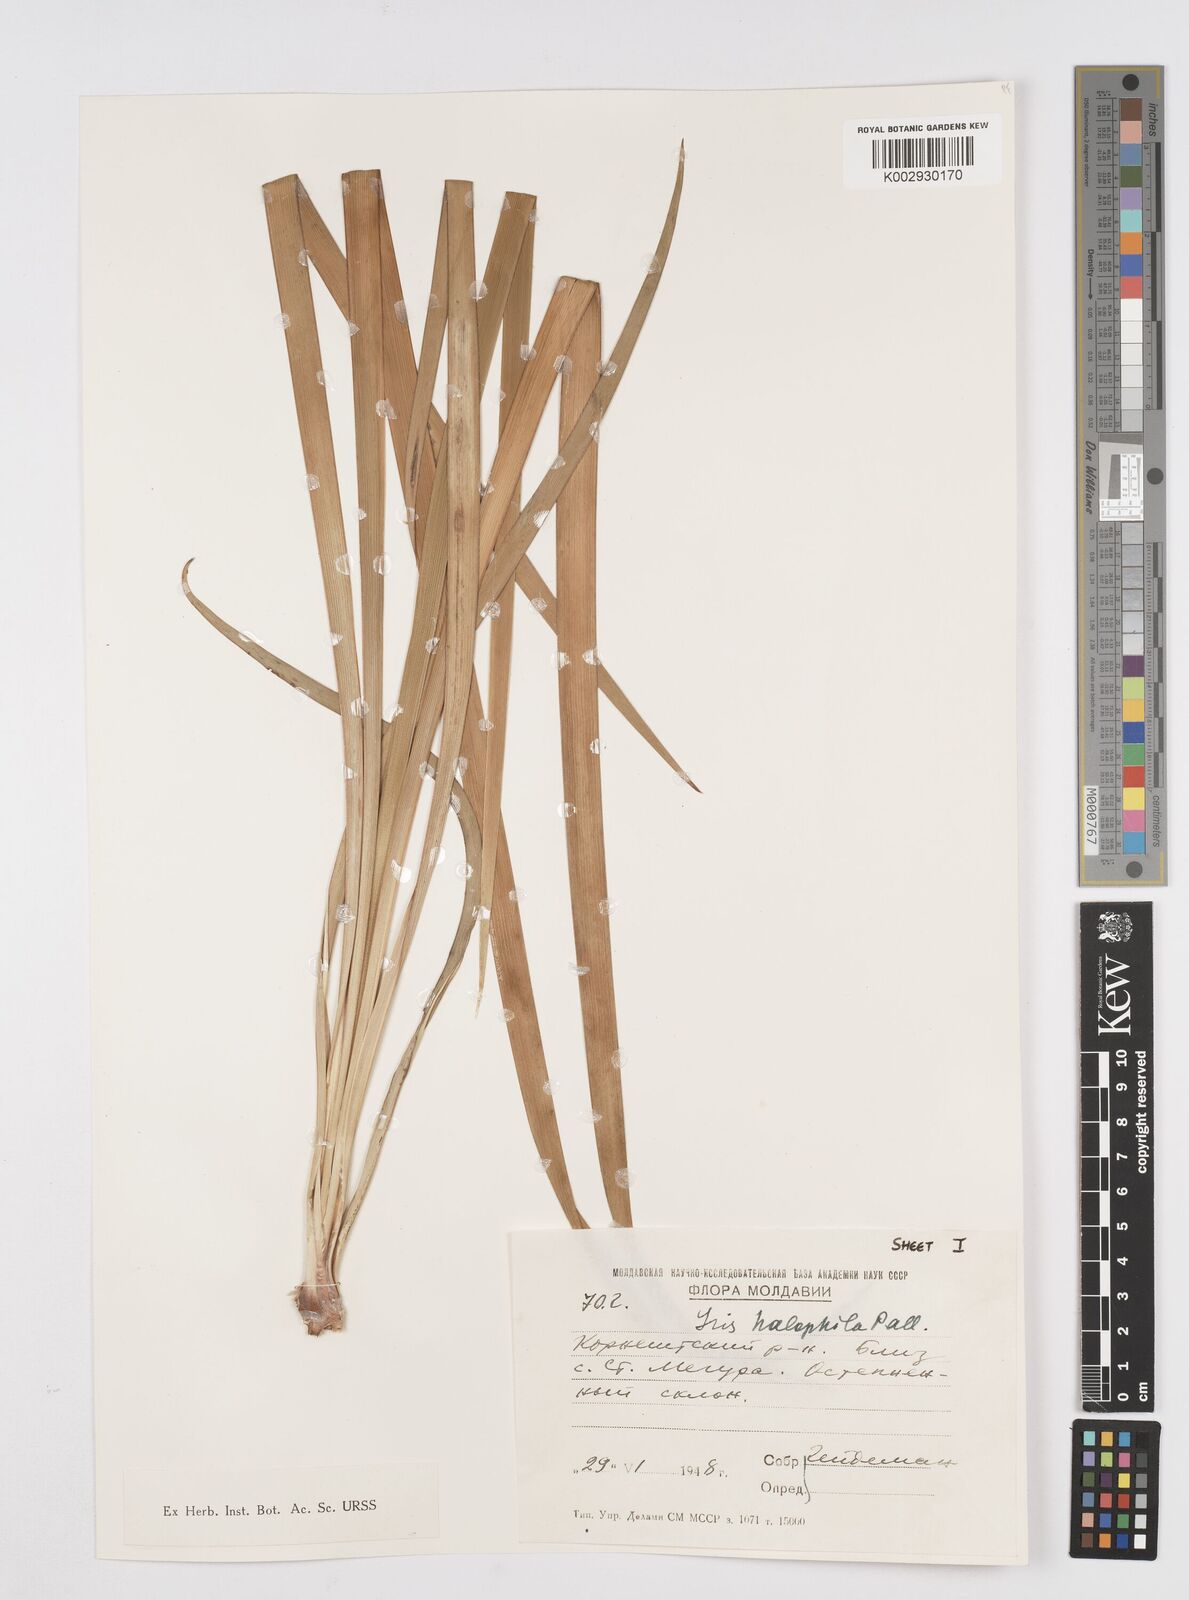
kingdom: Plantae
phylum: Tracheophyta
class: Liliopsida
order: Asparagales
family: Iridaceae
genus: Iris
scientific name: Iris halophila
